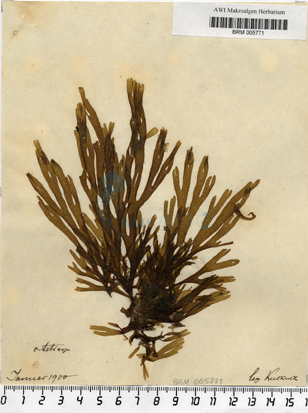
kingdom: Chromista
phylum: Ochrophyta
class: Phaeophyceae
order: Dictyotales
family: Dictyotaceae
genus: Dictyota
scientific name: Dictyota dichotoma
